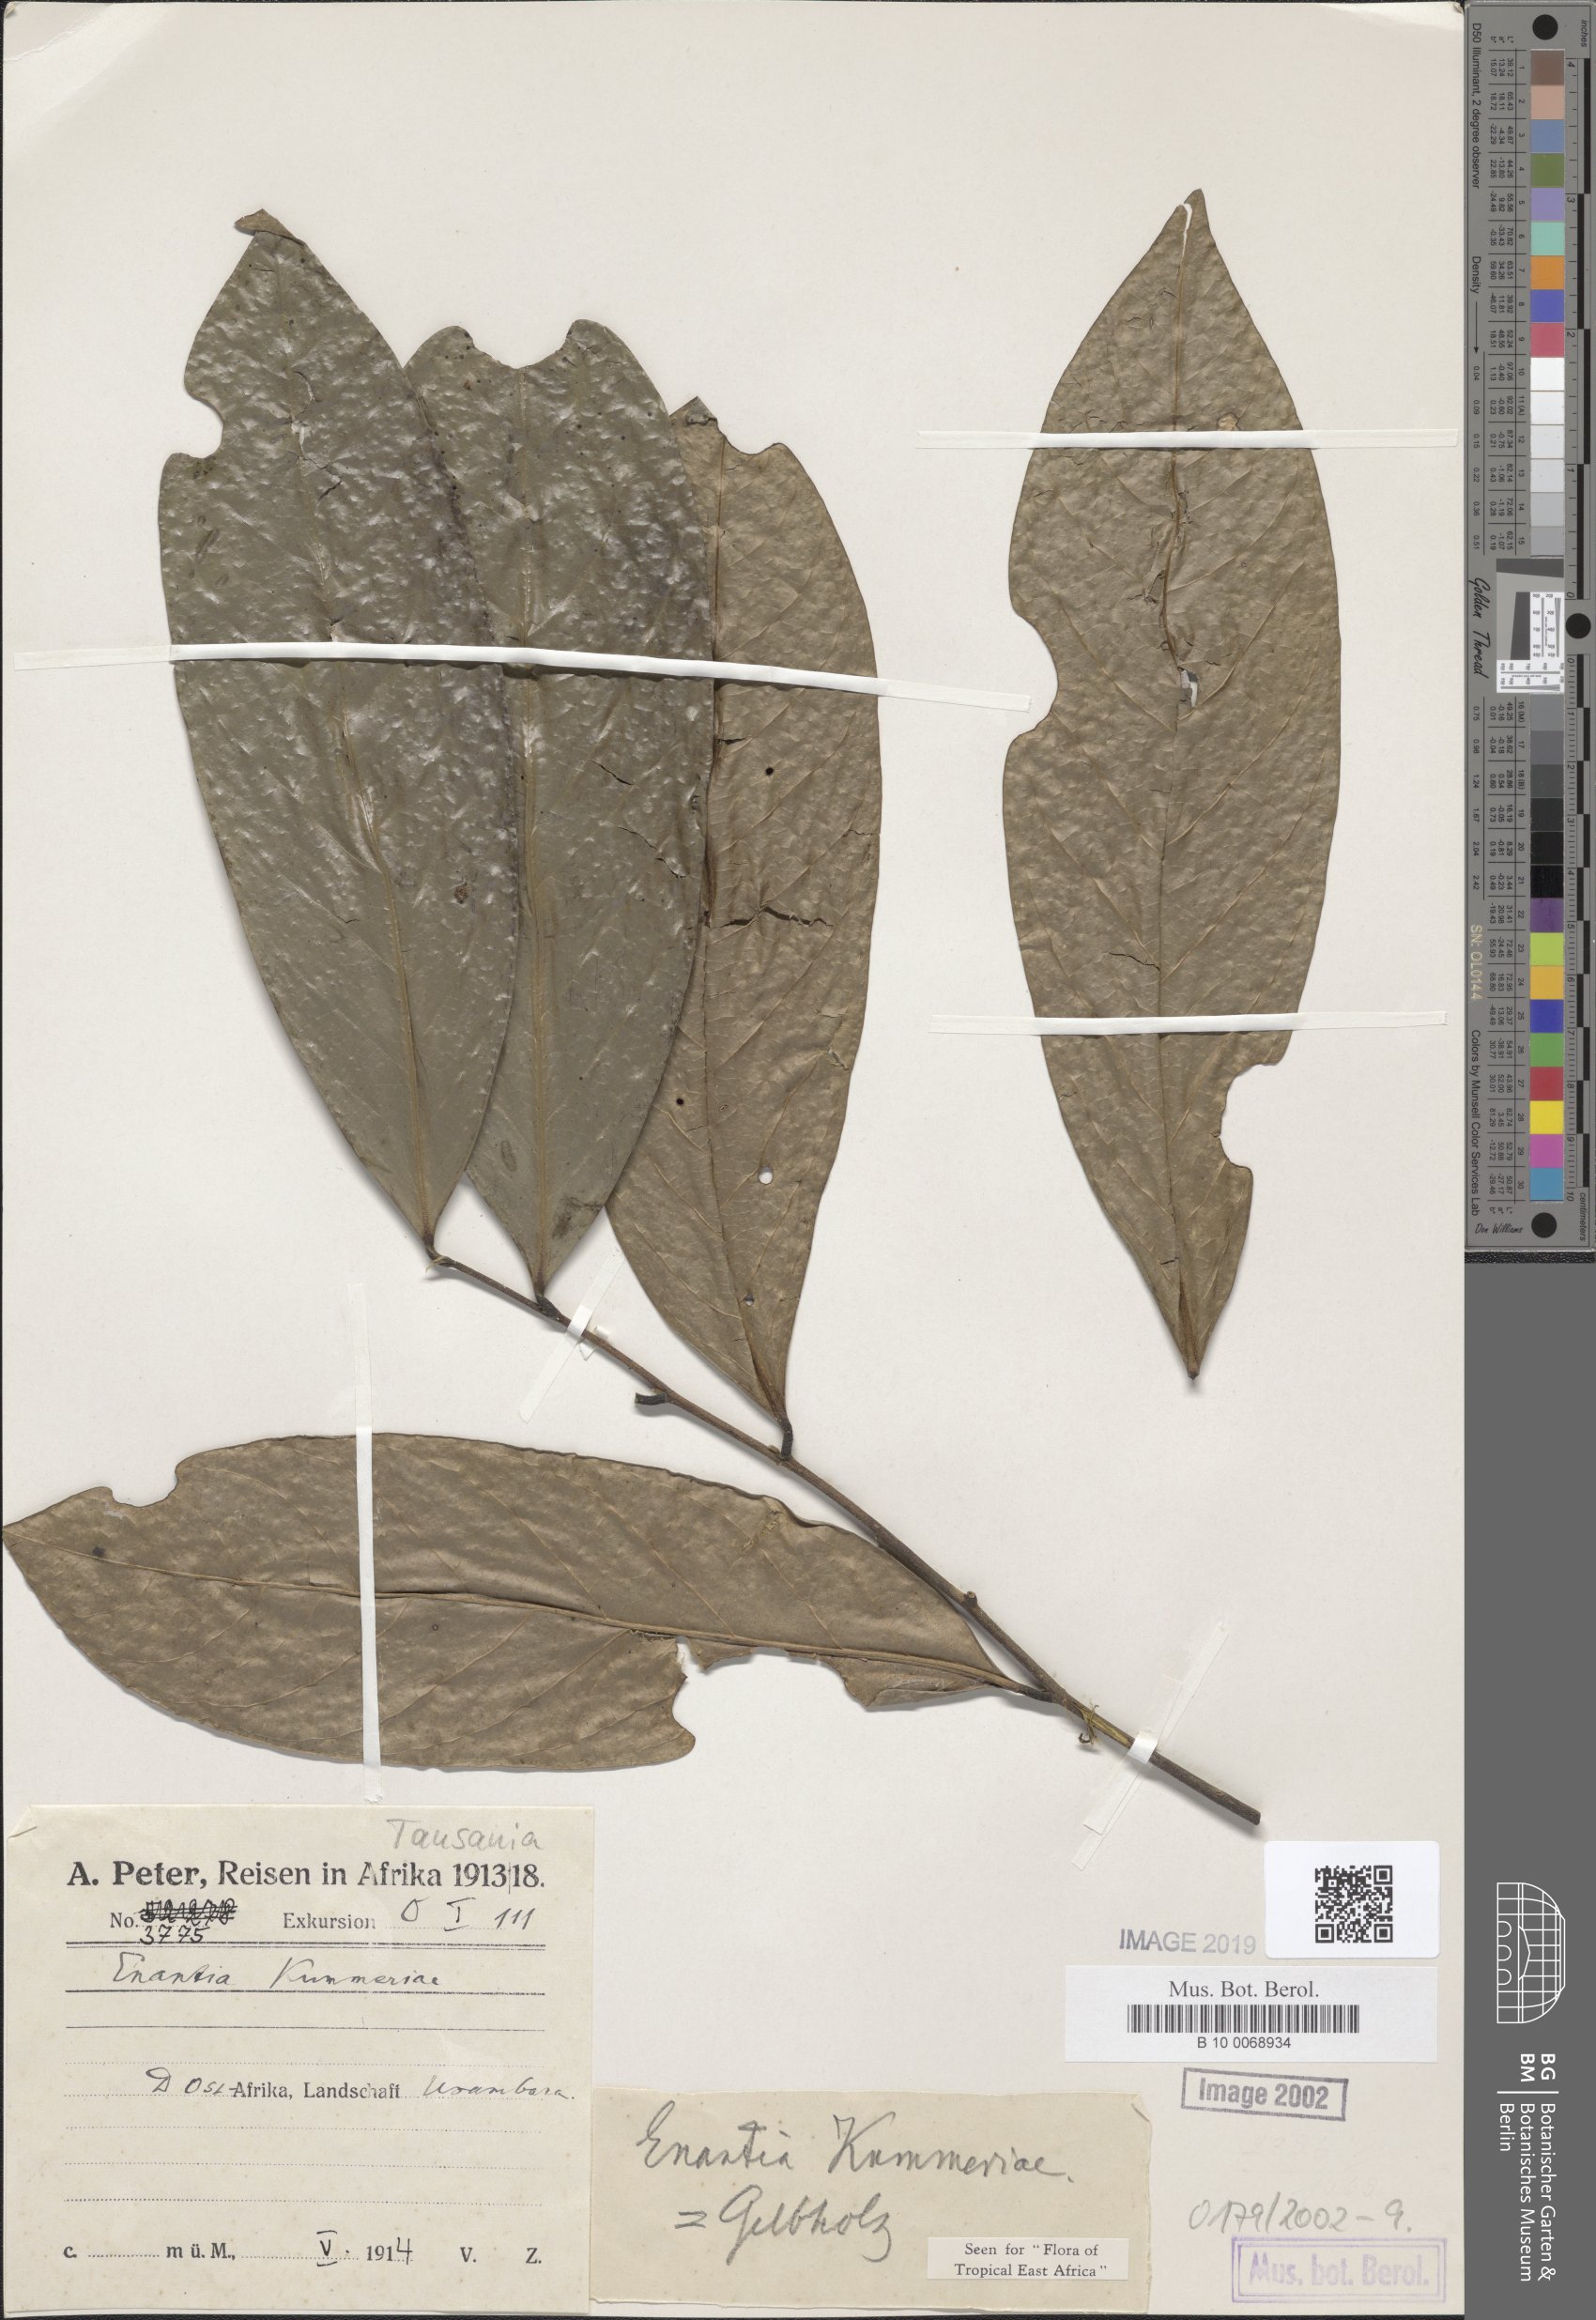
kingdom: Plantae
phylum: Tracheophyta
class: Magnoliopsida
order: Magnoliales
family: Annonaceae
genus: Annickia
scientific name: Annickia kummerae
